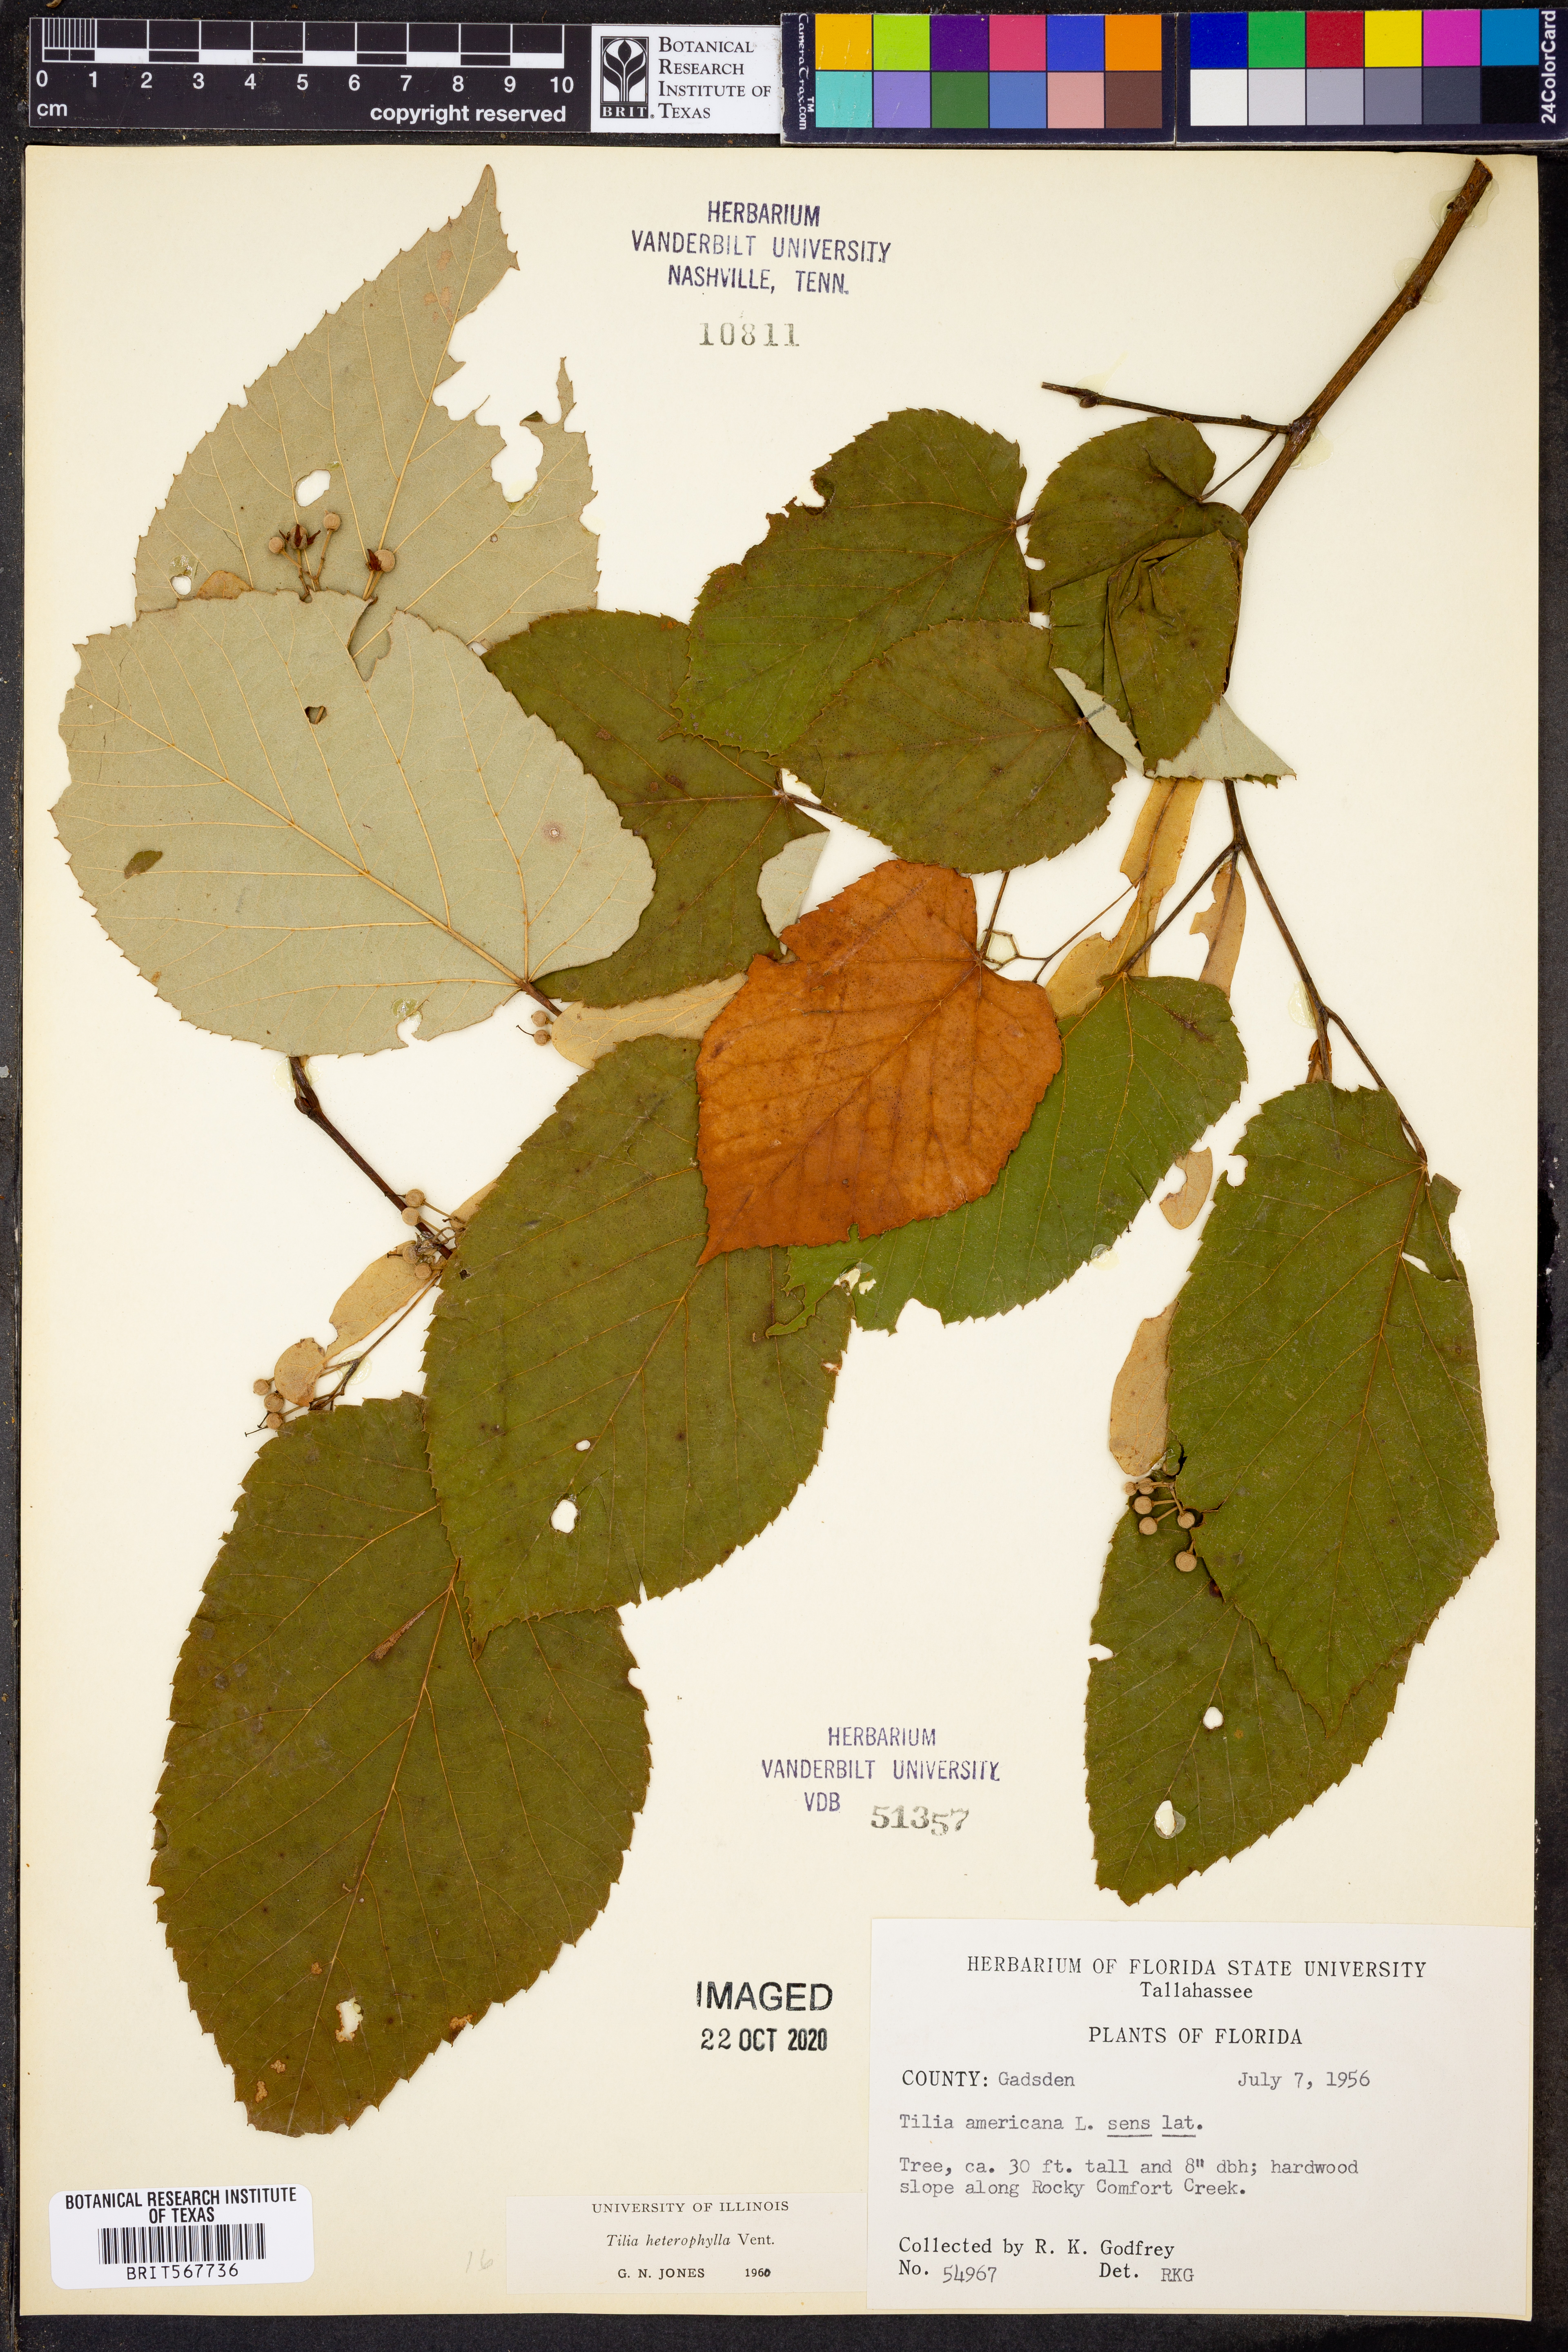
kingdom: Plantae
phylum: Tracheophyta
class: Magnoliopsida
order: Malvales
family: Malvaceae
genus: Tilia
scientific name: Tilia americana
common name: Basswood
